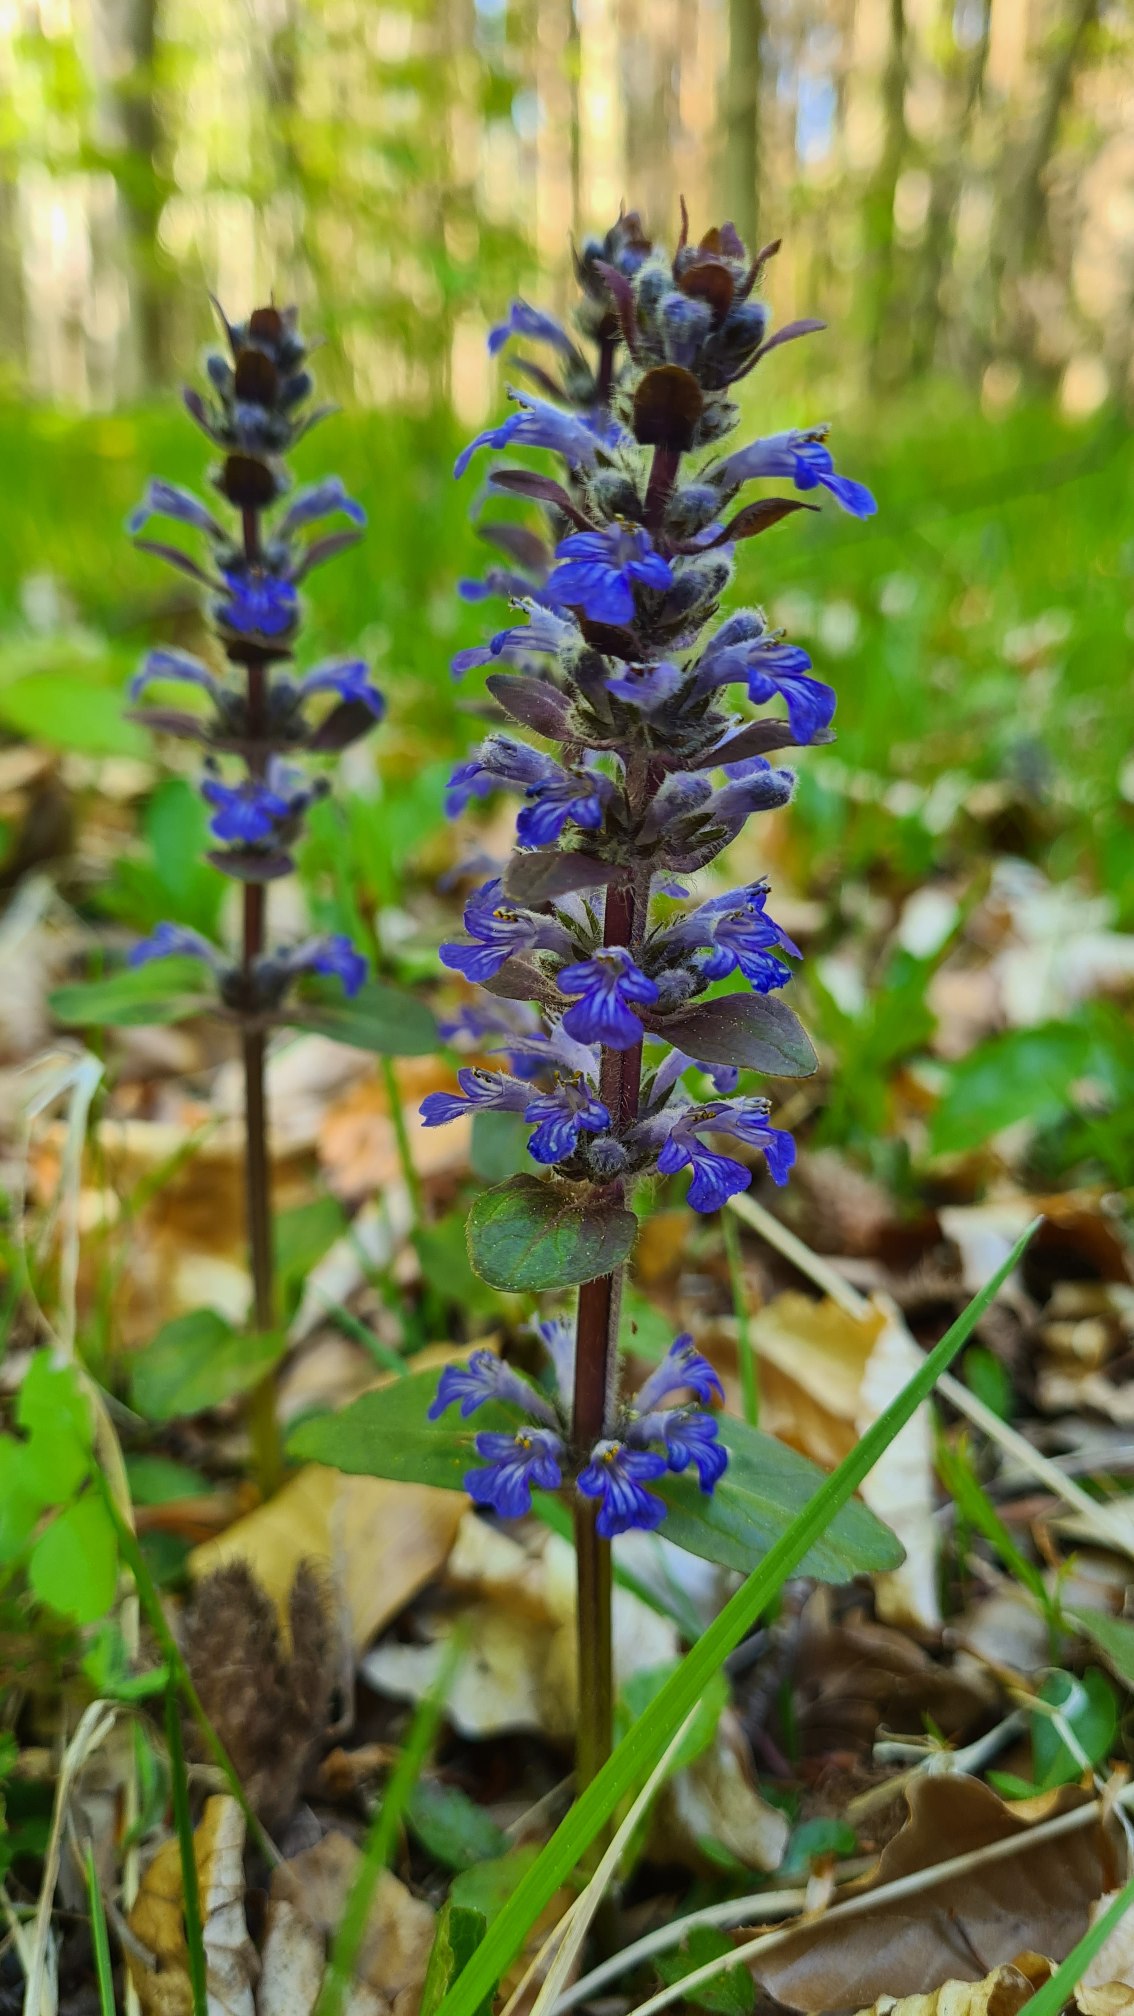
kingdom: Plantae
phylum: Tracheophyta
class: Magnoliopsida
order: Lamiales
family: Lamiaceae
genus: Ajuga
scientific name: Ajuga reptans
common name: Krybende læbeløs
